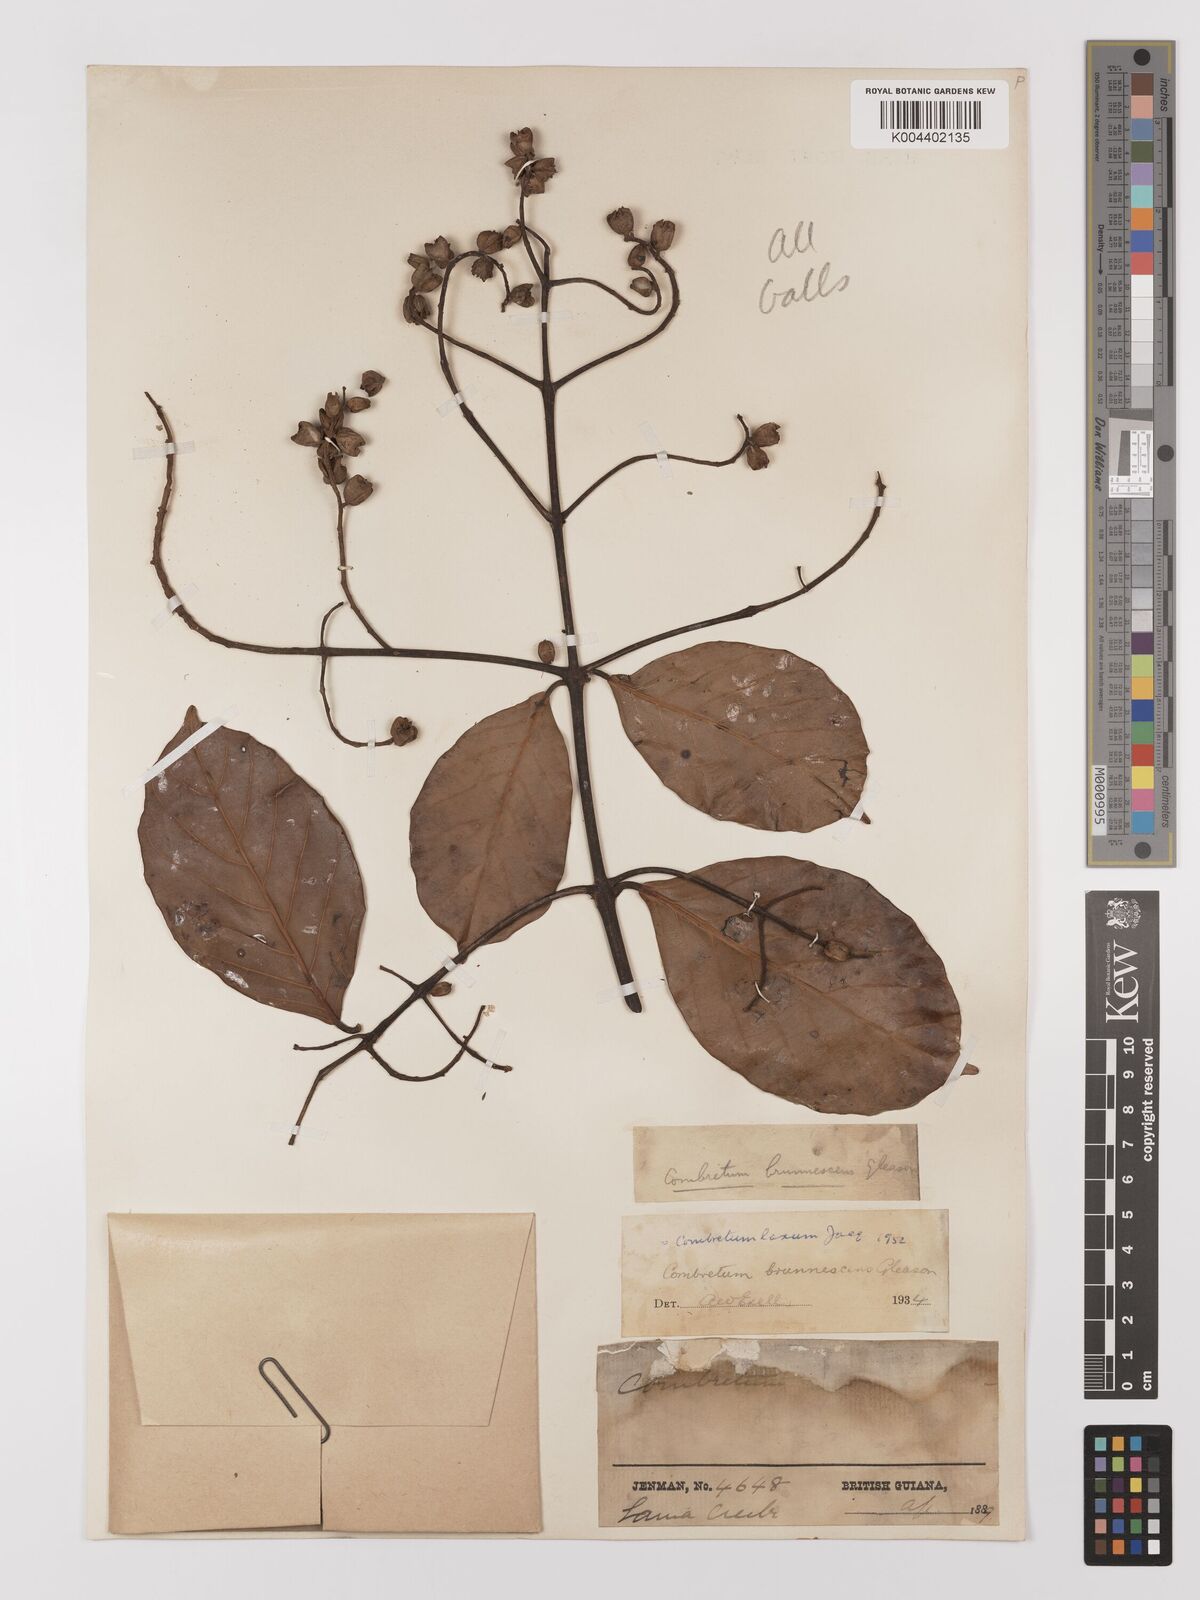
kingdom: Plantae
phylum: Tracheophyta
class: Magnoliopsida
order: Myrtales
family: Combretaceae
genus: Combretum
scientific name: Combretum
